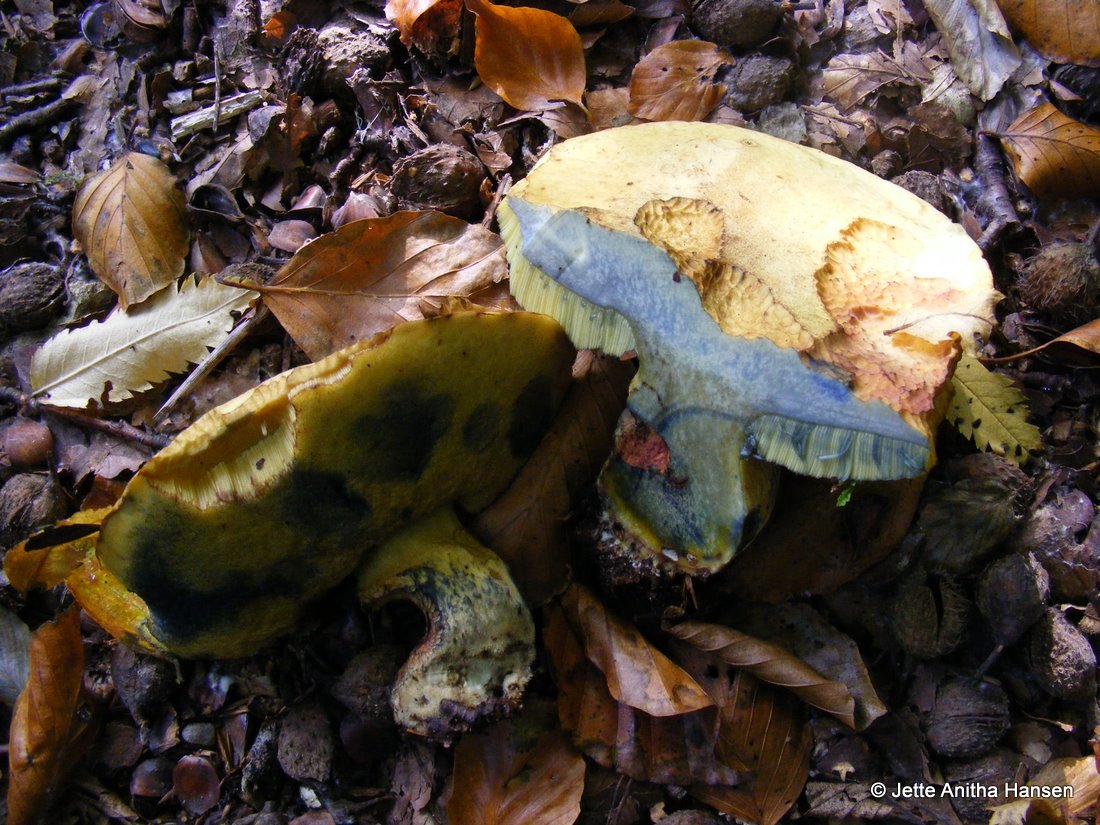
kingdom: Fungi
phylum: Basidiomycota
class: Agaricomycetes
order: Boletales
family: Boletaceae
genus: Neoboletus
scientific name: Neoboletus praestigiator
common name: gul indigorørhat
